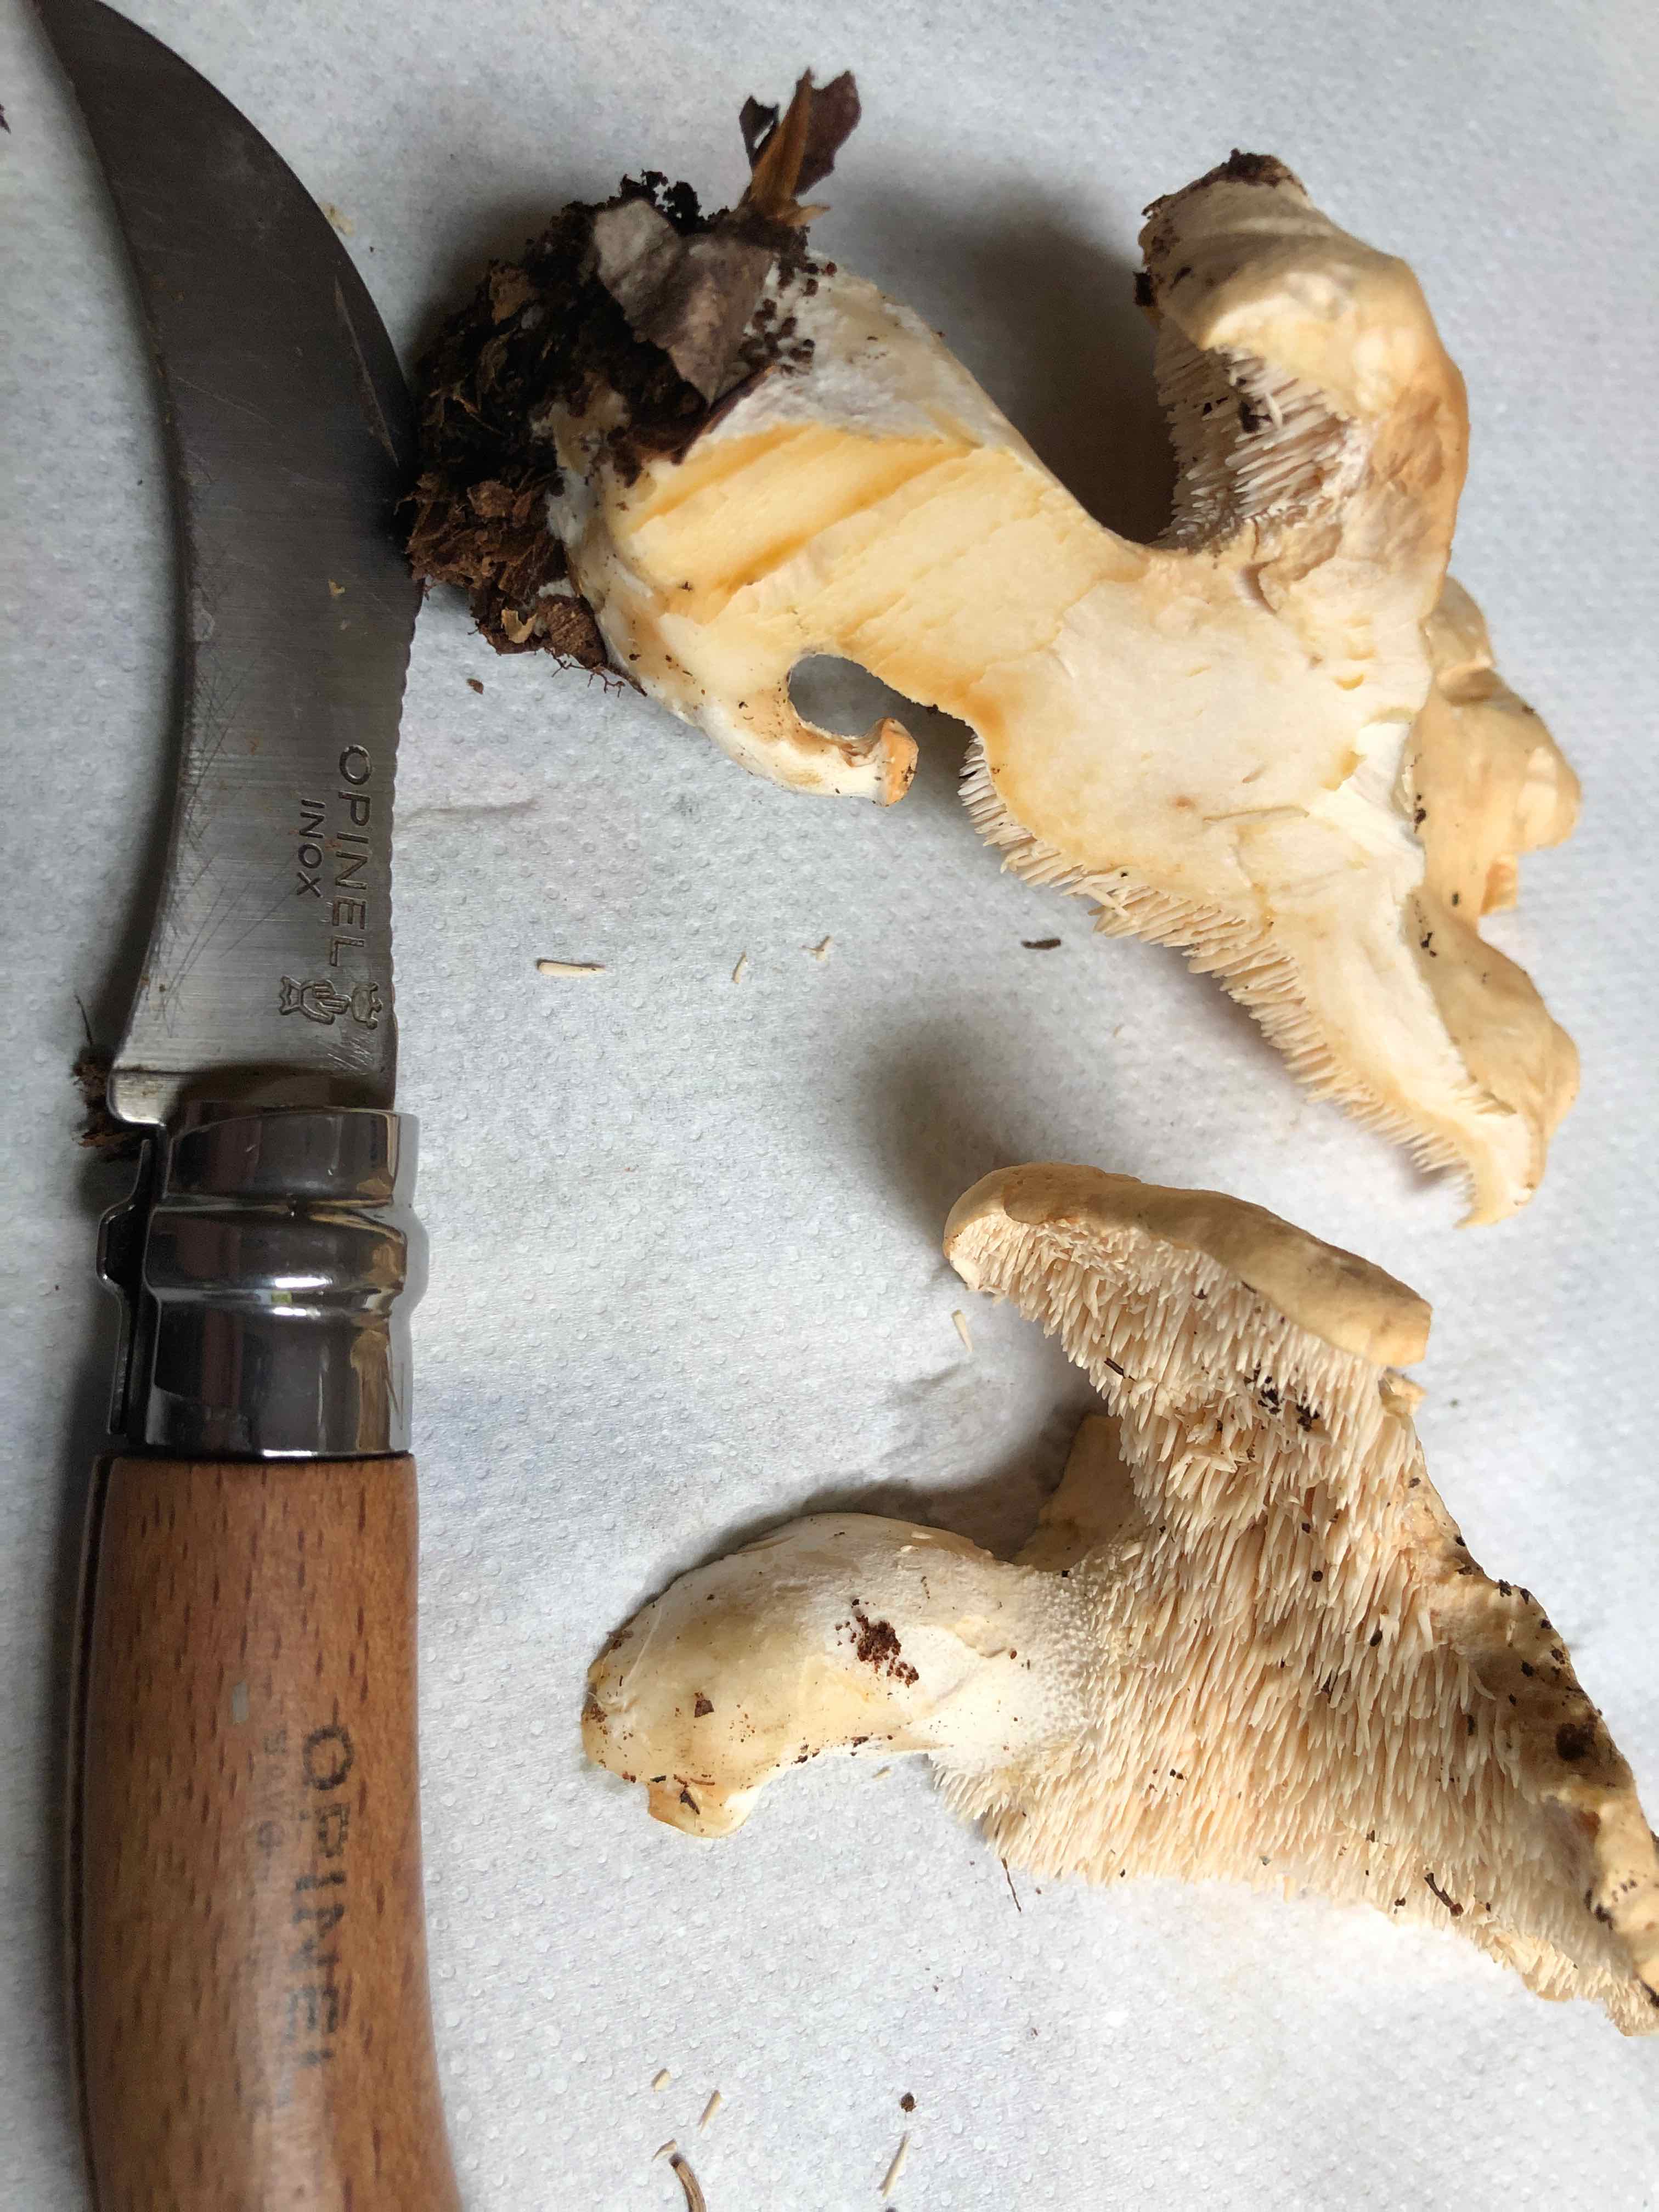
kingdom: Fungi
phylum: Basidiomycota
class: Agaricomycetes
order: Cantharellales
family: Hydnaceae
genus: Hydnum
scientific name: Hydnum repandum
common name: almindelig pigsvamp
